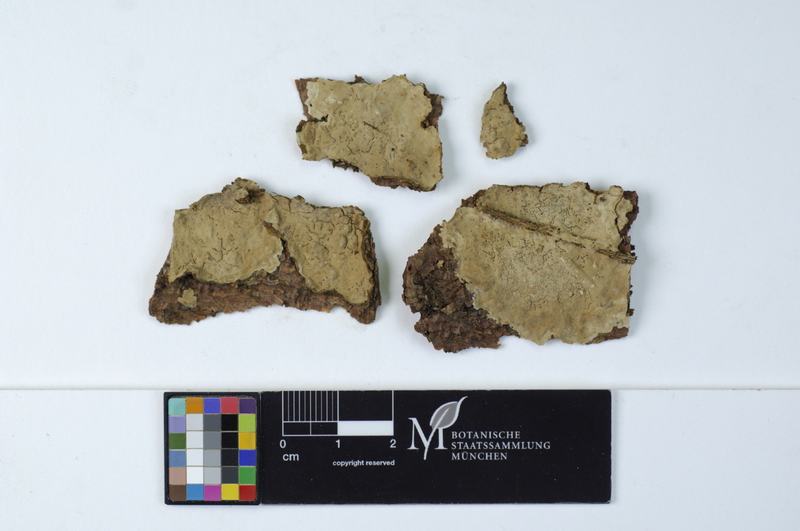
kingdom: Plantae
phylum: Tracheophyta
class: Pinopsida
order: Pinales
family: Pinaceae
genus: Picea
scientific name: Picea
